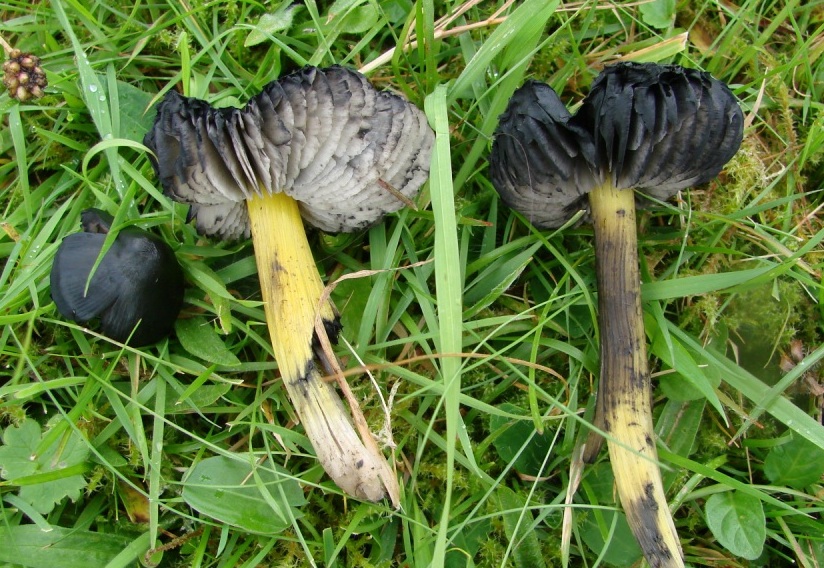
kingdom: Fungi
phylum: Basidiomycota
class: Agaricomycetes
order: Agaricales
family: Hygrophoraceae
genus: Hygrocybe
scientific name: Hygrocybe conica
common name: kegle-vokshat
